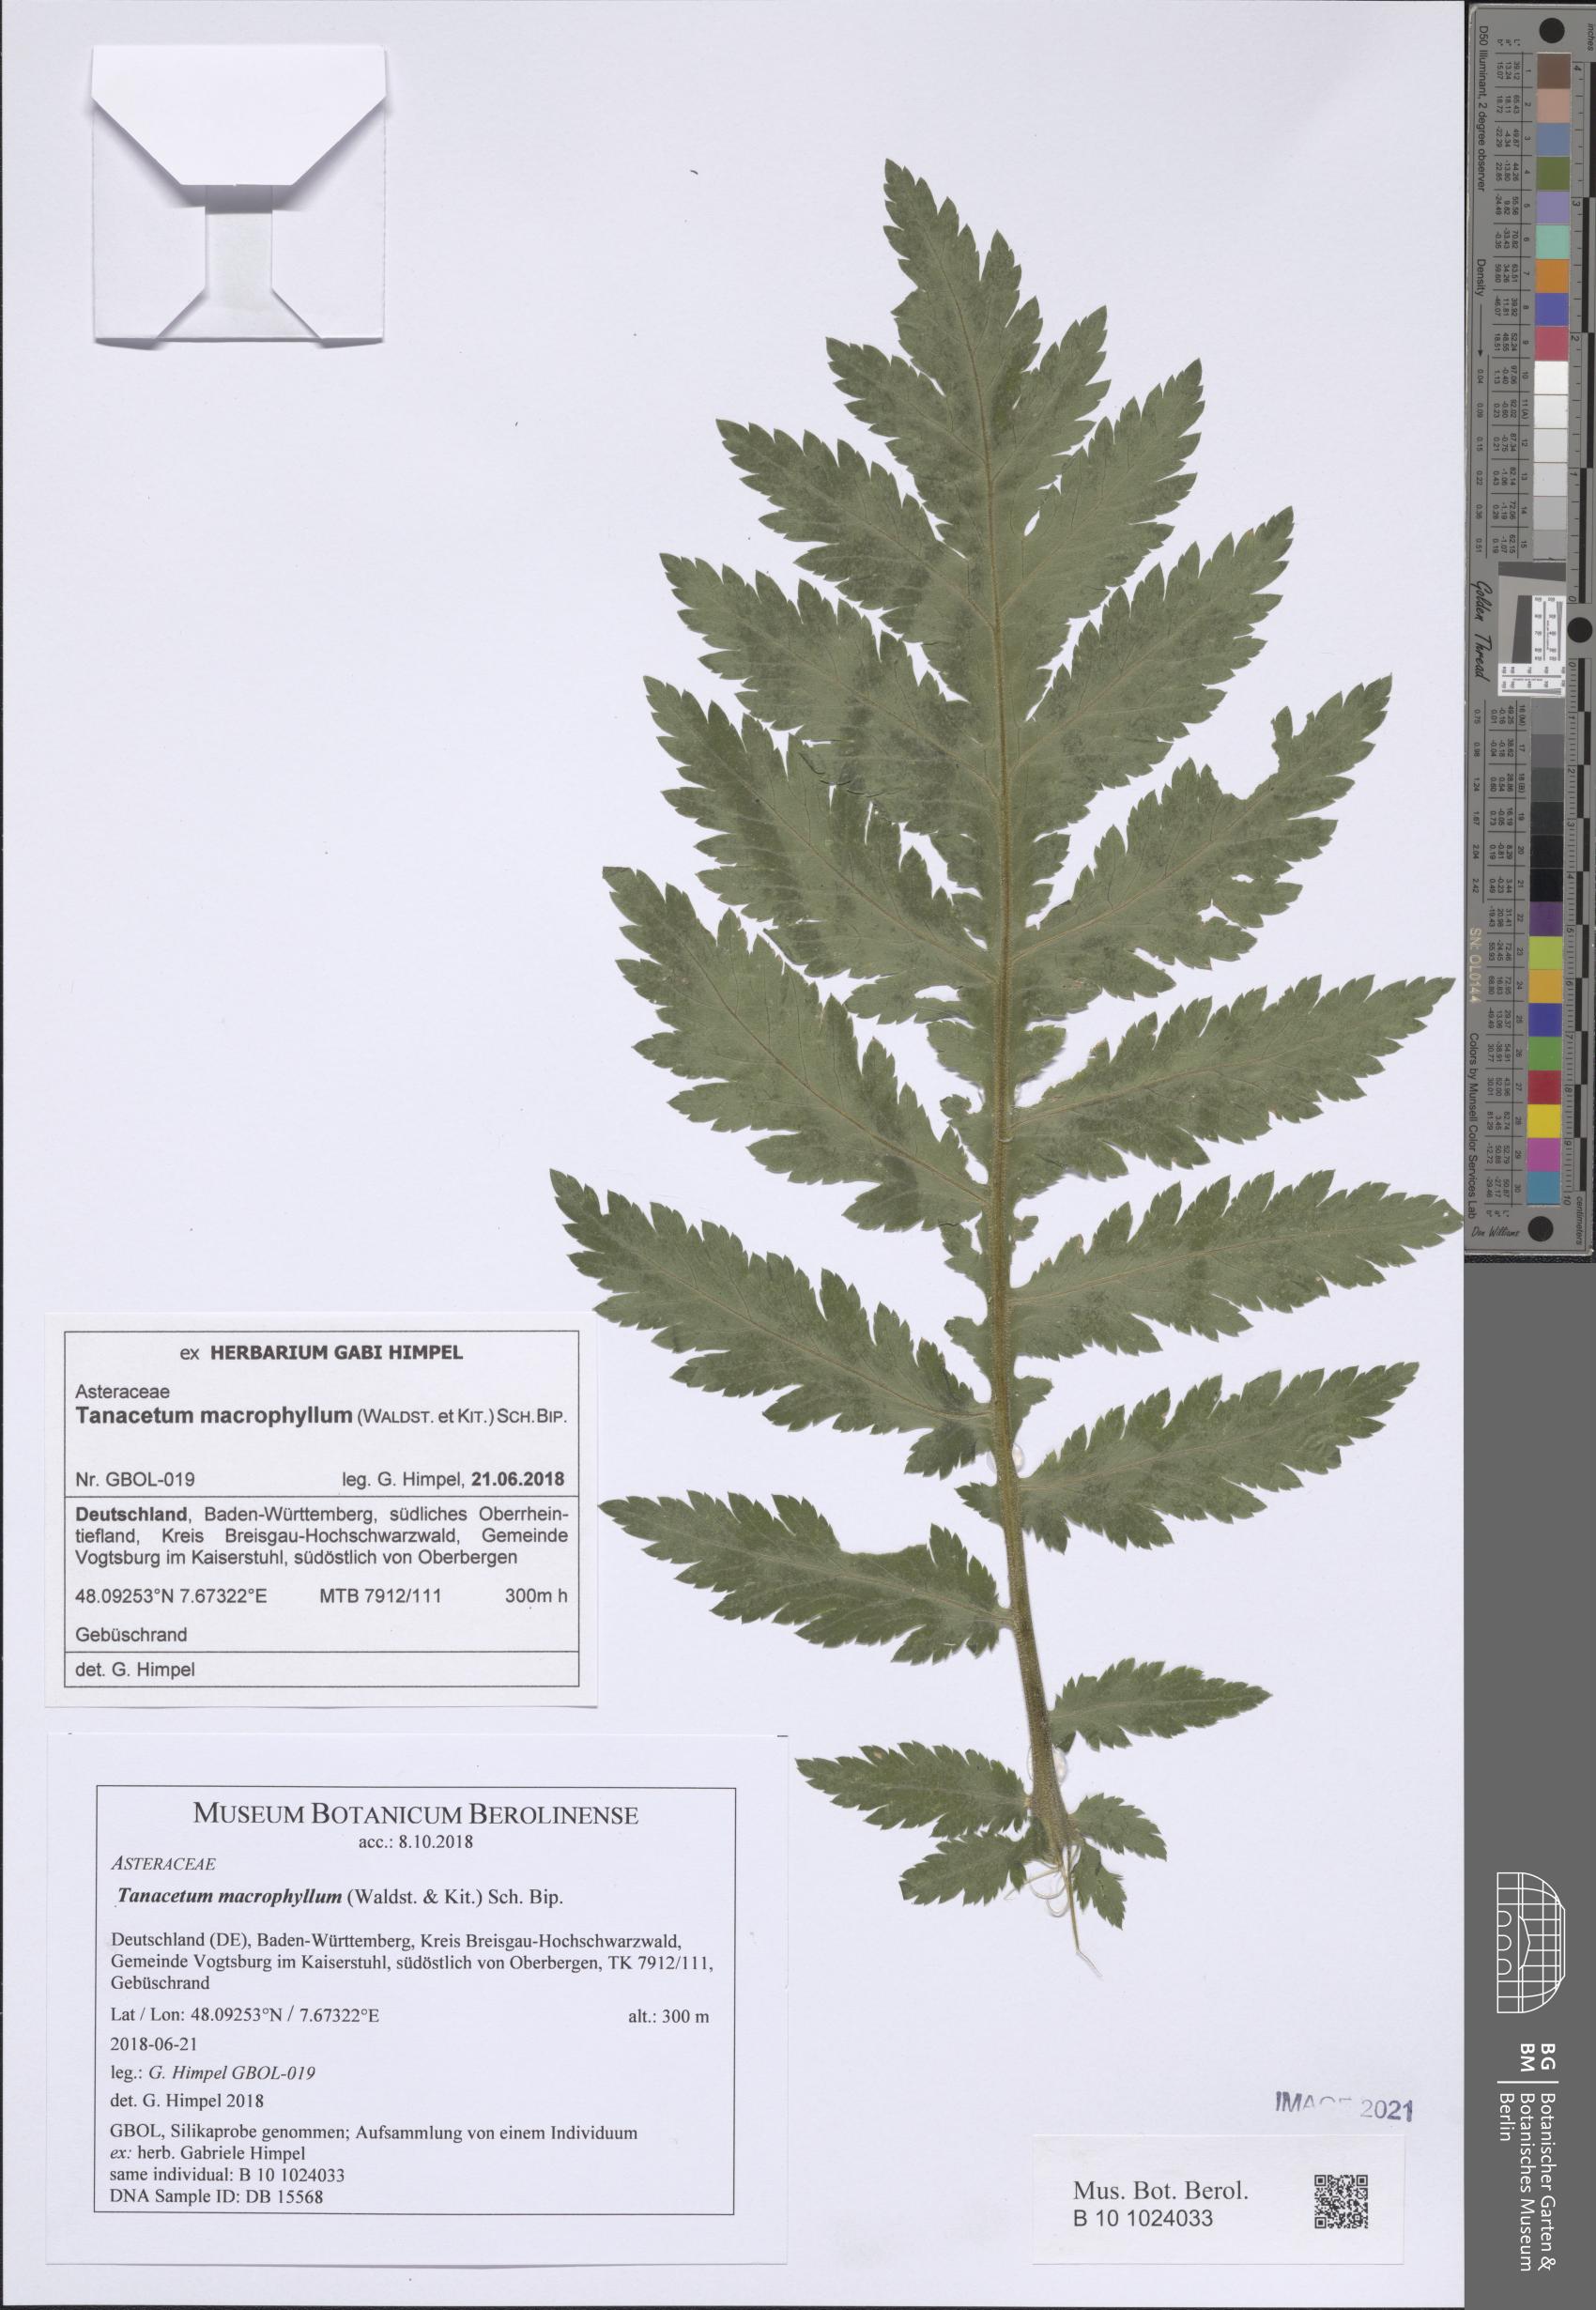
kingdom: Plantae
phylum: Tracheophyta
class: Magnoliopsida
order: Asterales
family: Asteraceae
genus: Tanacetum
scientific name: Tanacetum macrophyllum
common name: Rayed tansy
